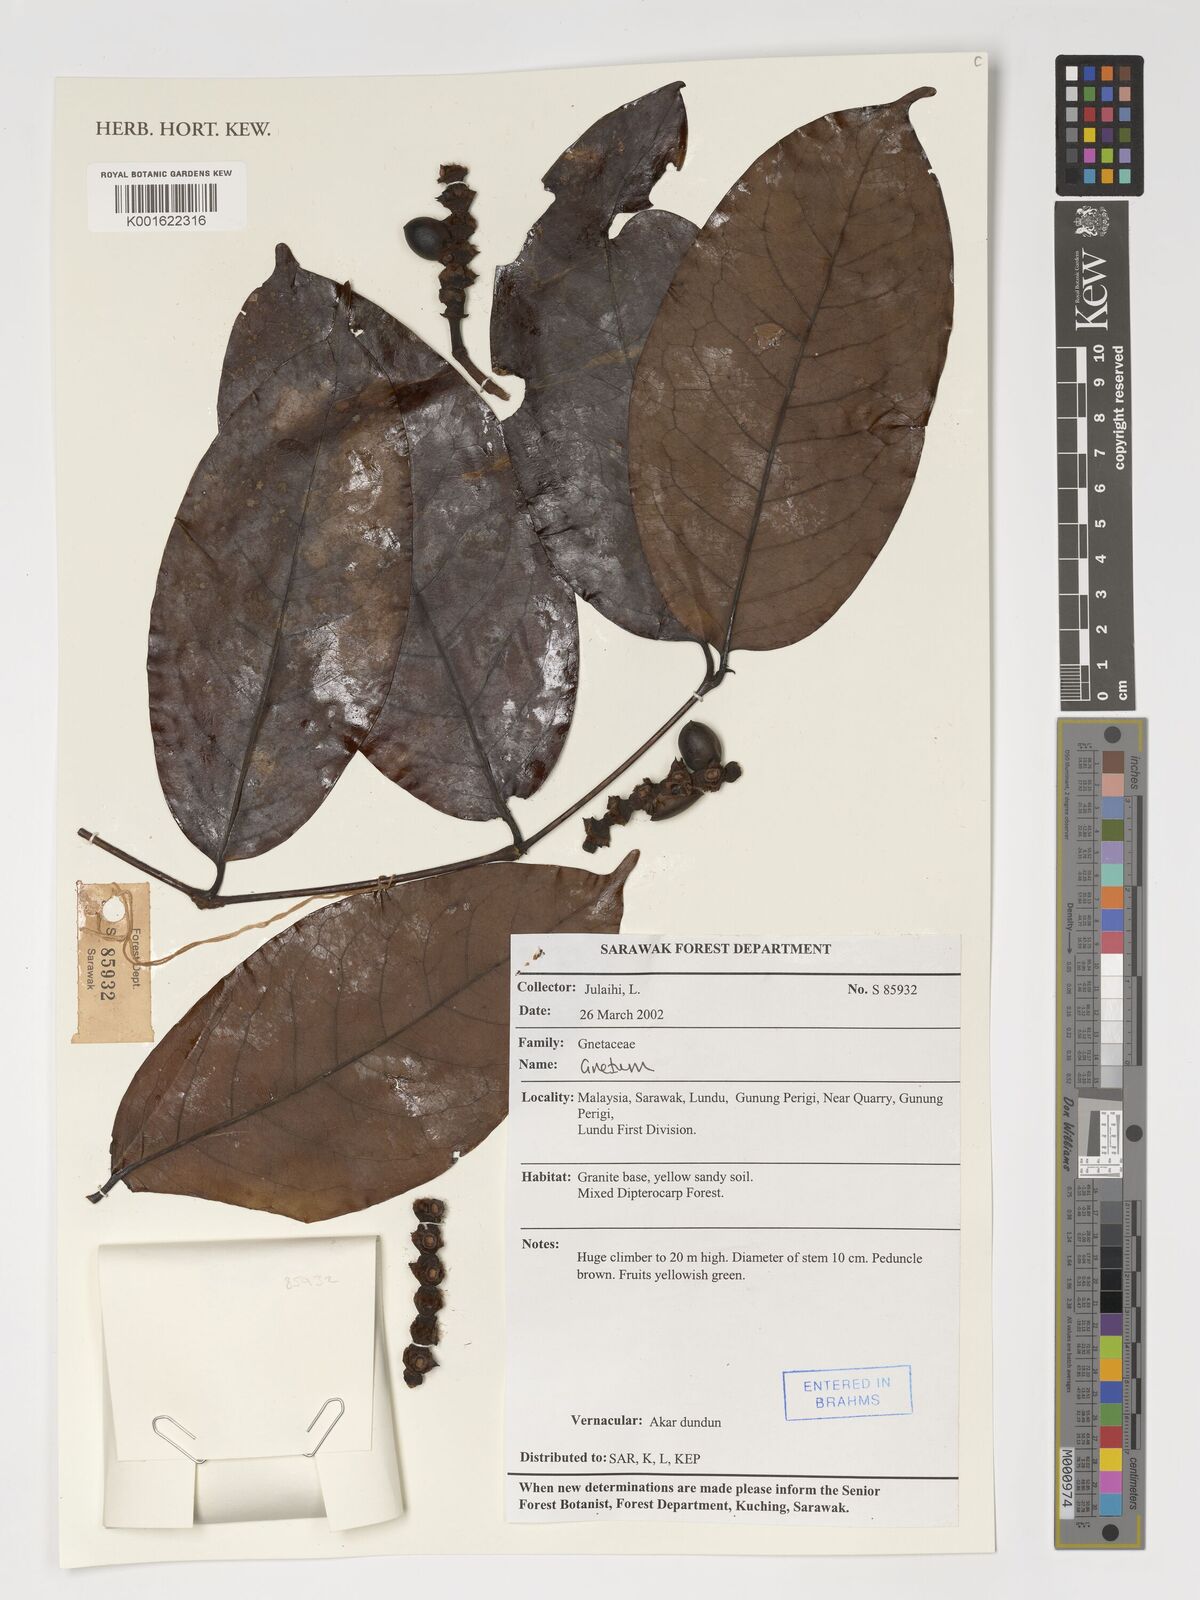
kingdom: Plantae
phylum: Tracheophyta
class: Gnetopsida
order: Gnetales
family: Gnetaceae
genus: Gnetum
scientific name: Gnetum
